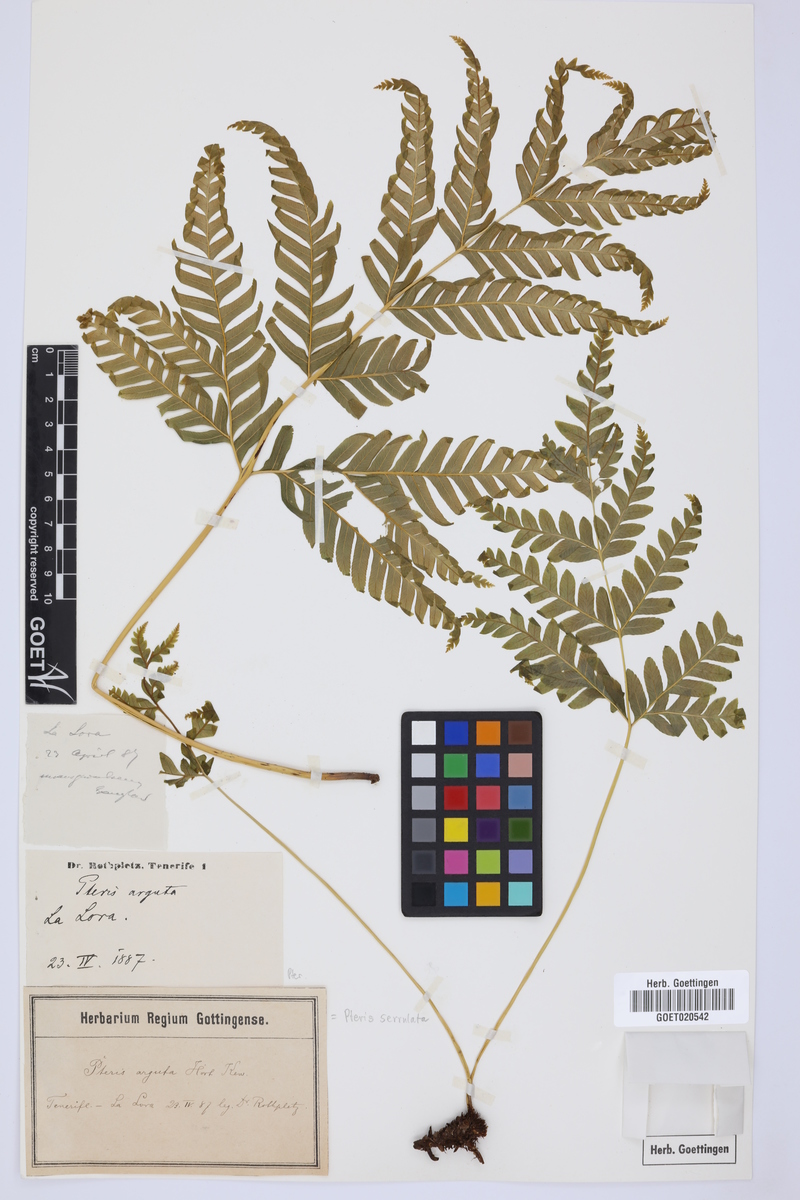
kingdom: Plantae
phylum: Tracheophyta
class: Polypodiopsida
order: Polypodiales
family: Pteridaceae
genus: Pteris
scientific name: Pteris dentata
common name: Toothed brake
